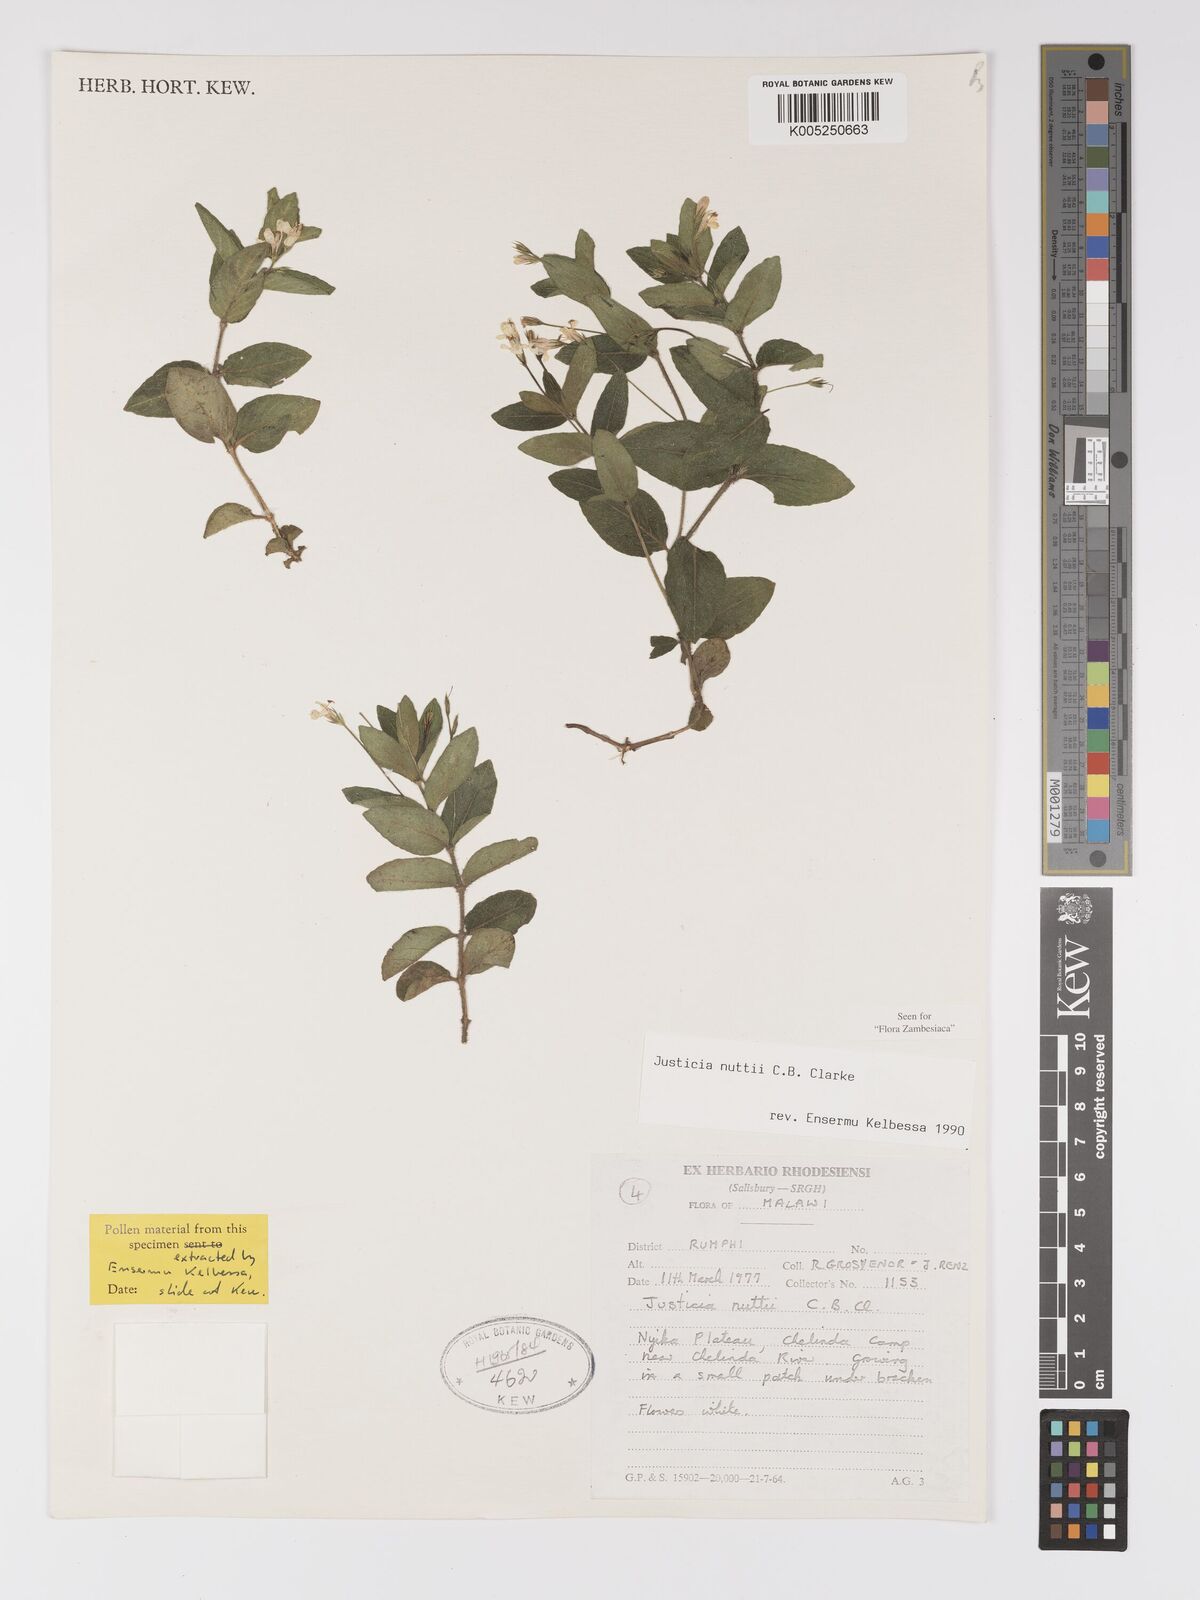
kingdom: Plantae
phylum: Tracheophyta
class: Magnoliopsida
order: Lamiales
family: Acanthaceae
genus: Justicia
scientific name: Justicia nuttii
